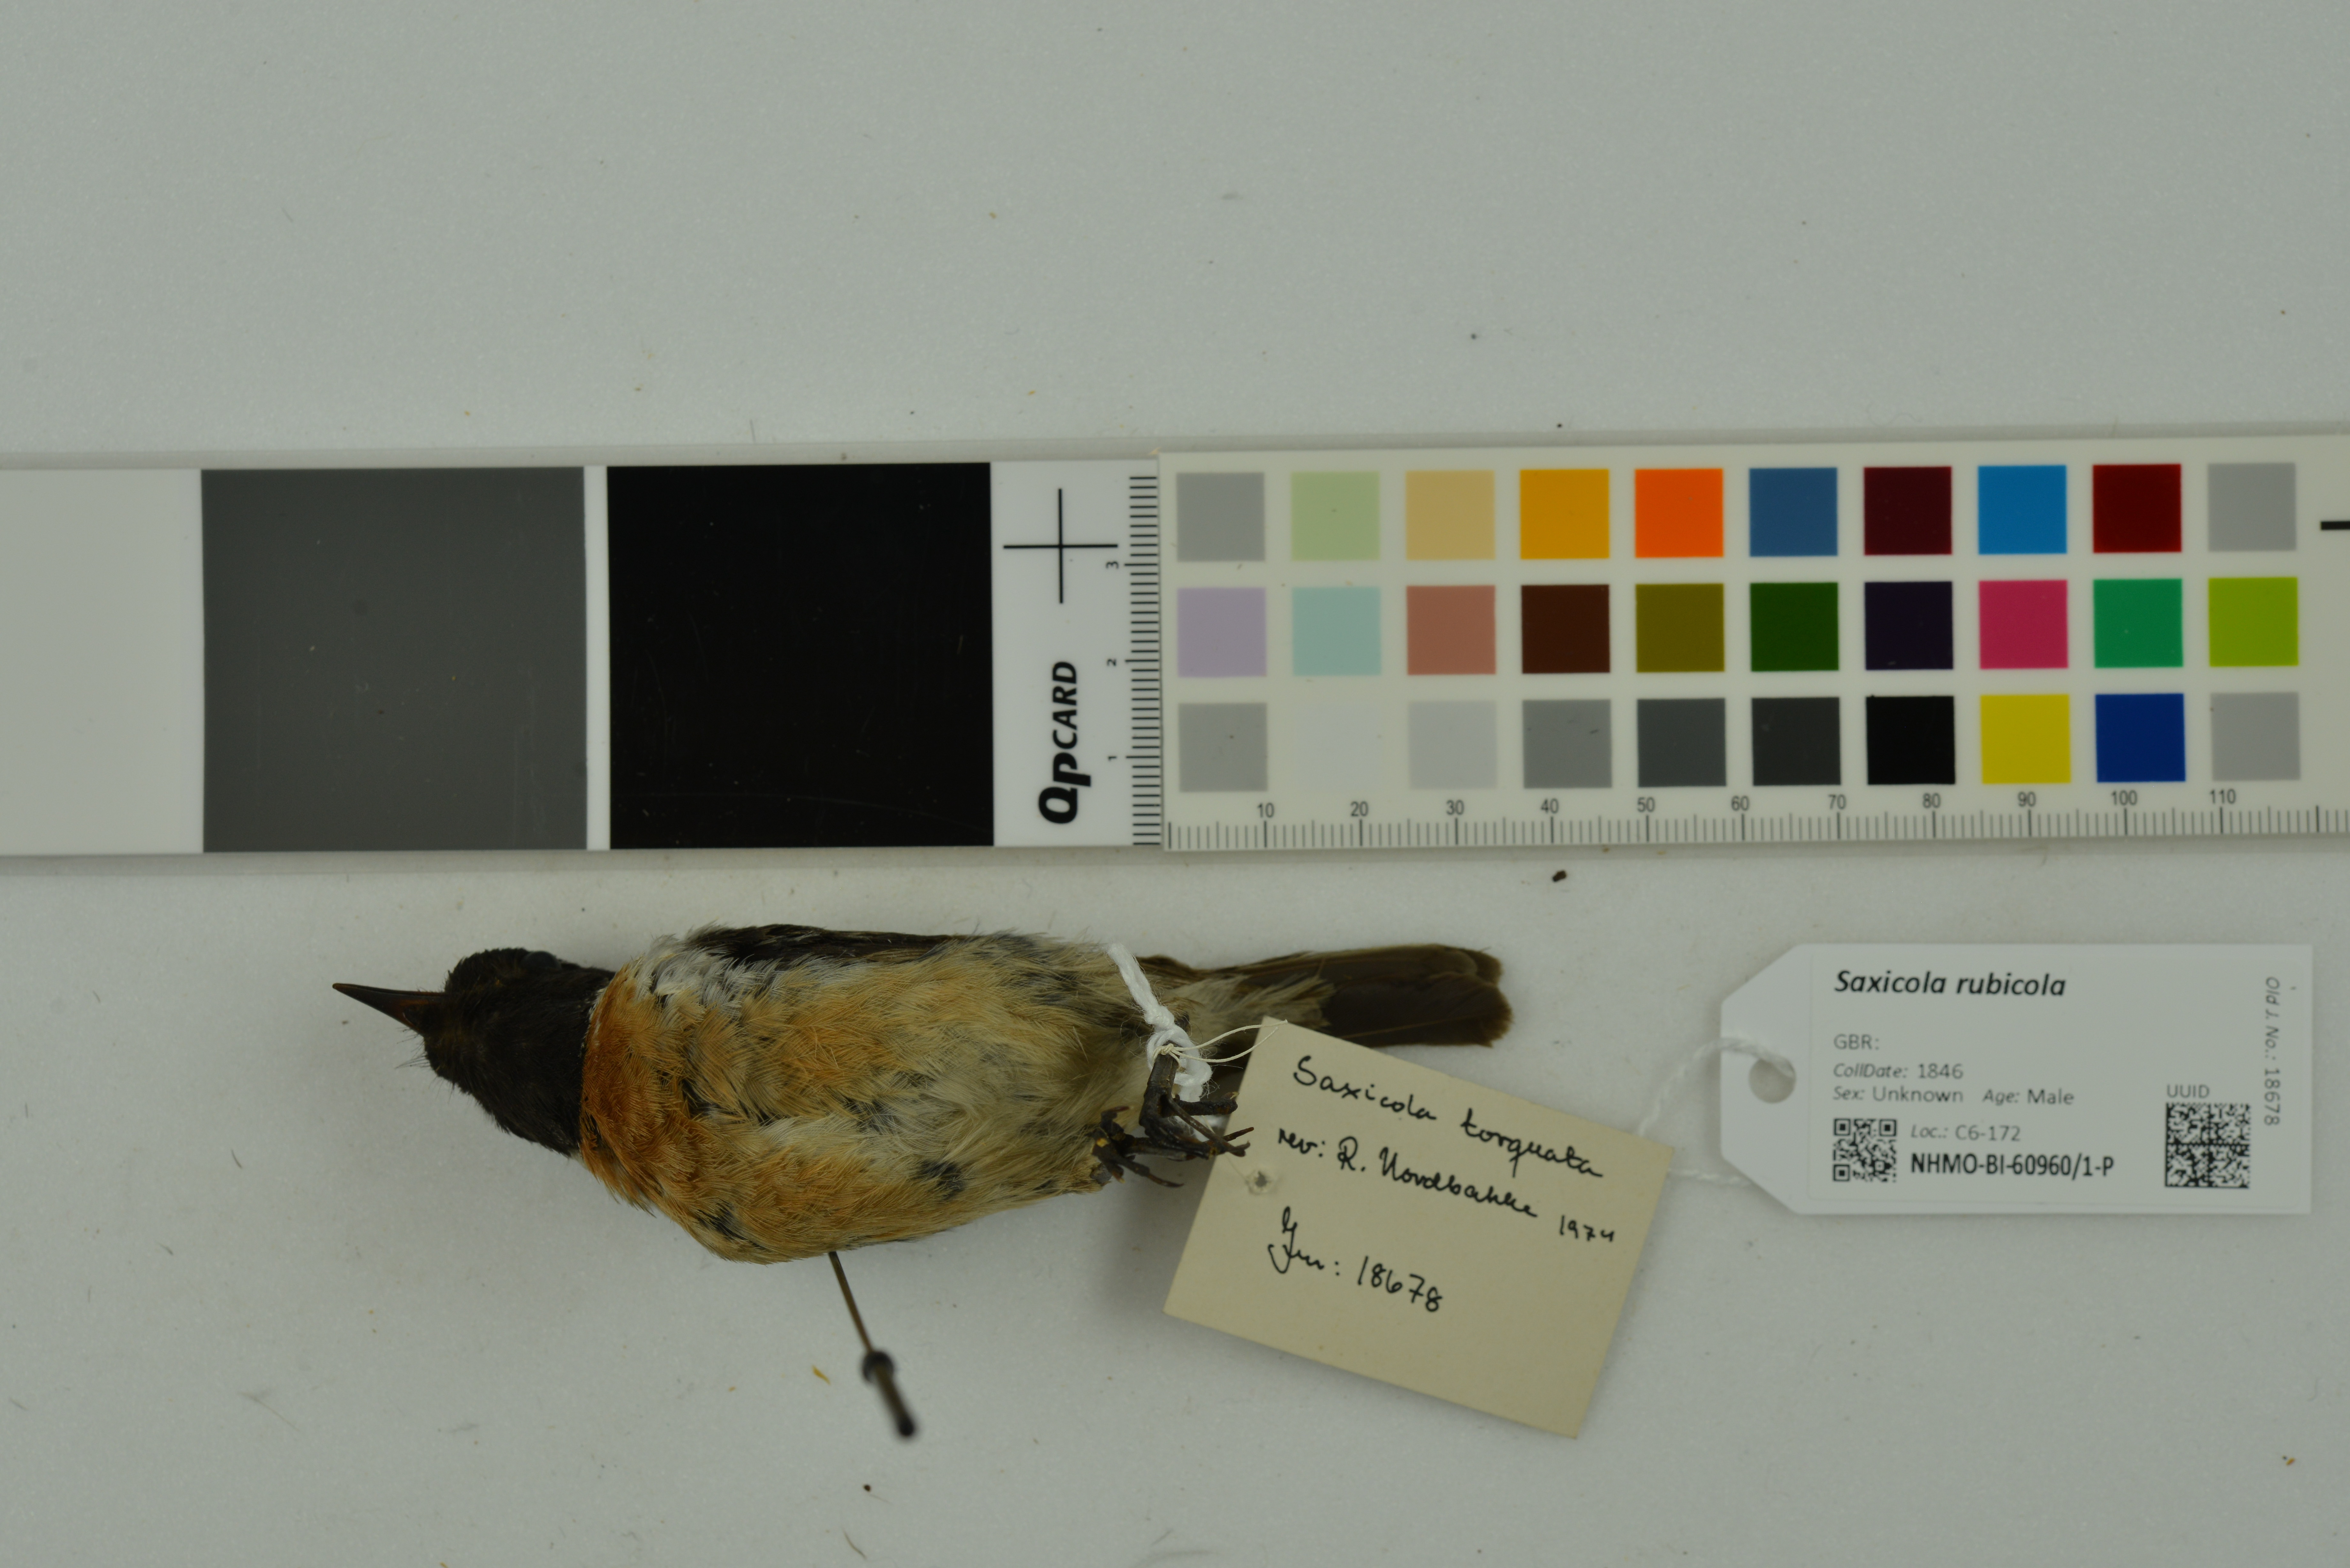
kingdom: Animalia
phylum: Chordata
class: Aves
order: Passeriformes
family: Muscicapidae
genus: Saxicola
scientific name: Saxicola rubicola
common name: European stonechat
